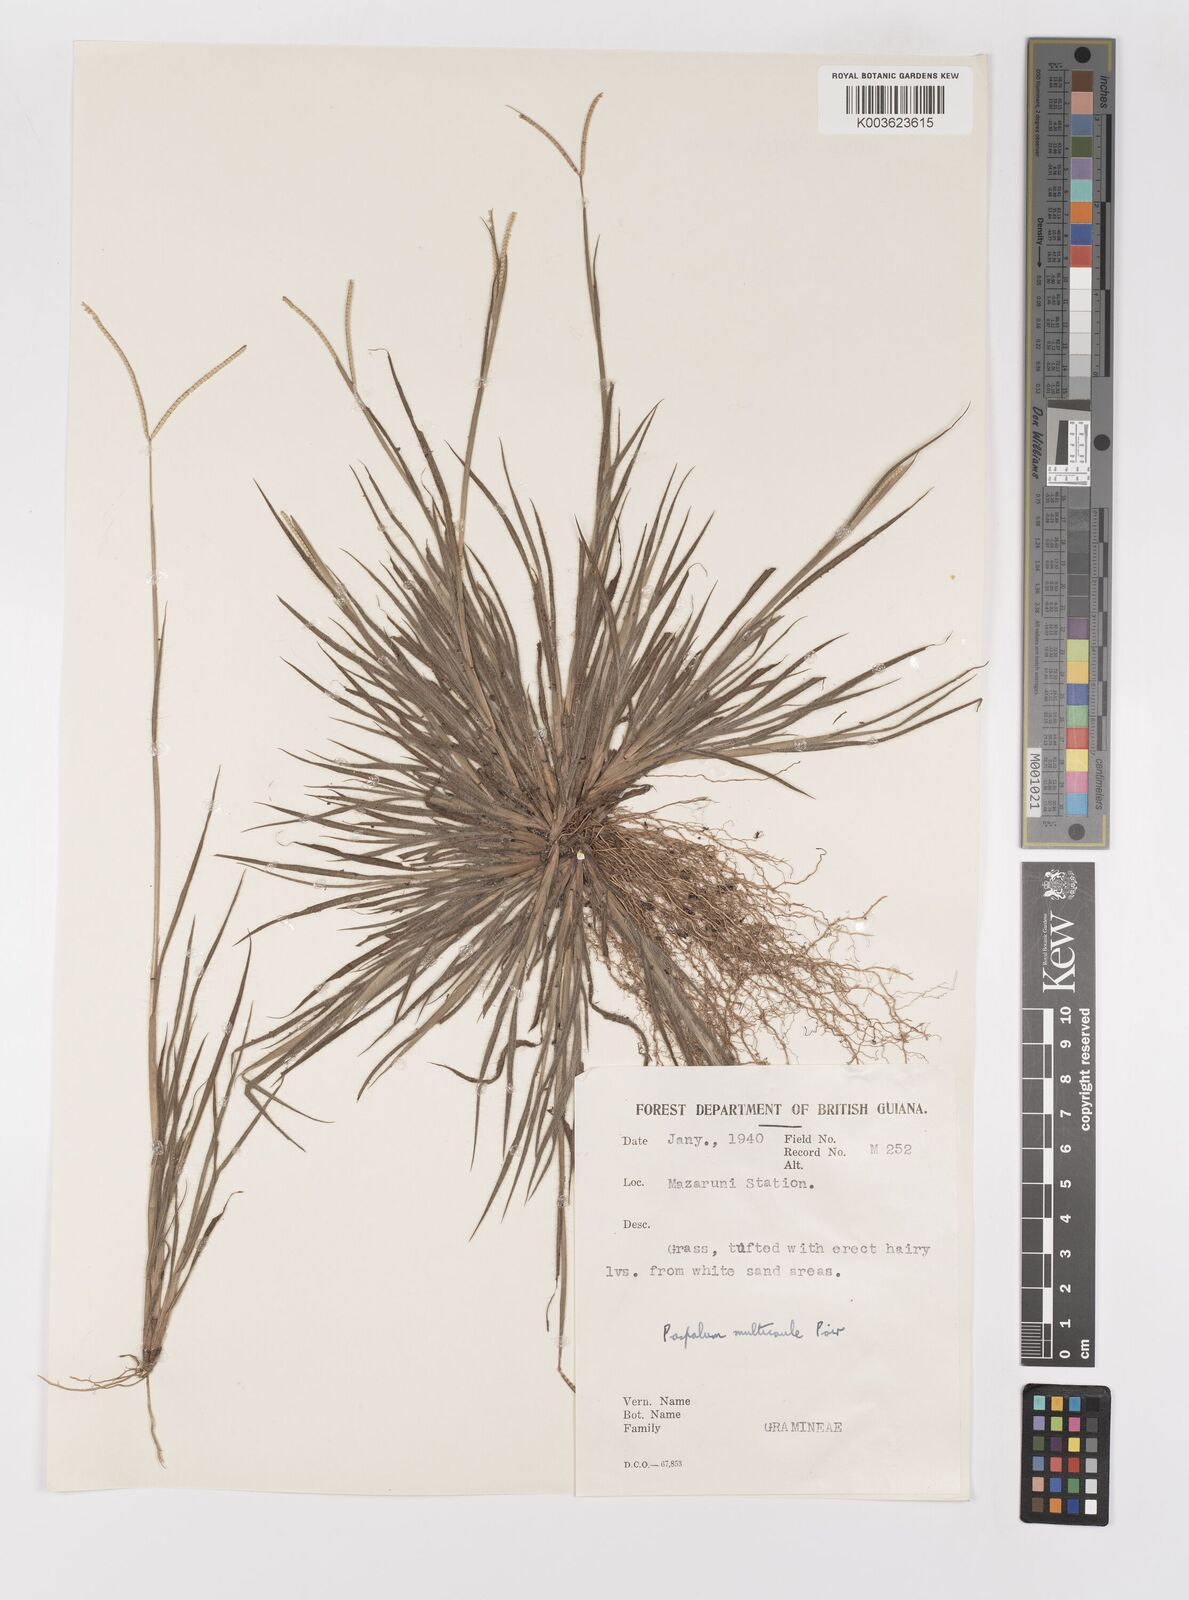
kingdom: Plantae
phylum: Tracheophyta
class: Liliopsida
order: Poales
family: Poaceae
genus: Paspalum
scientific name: Paspalum multicaule
